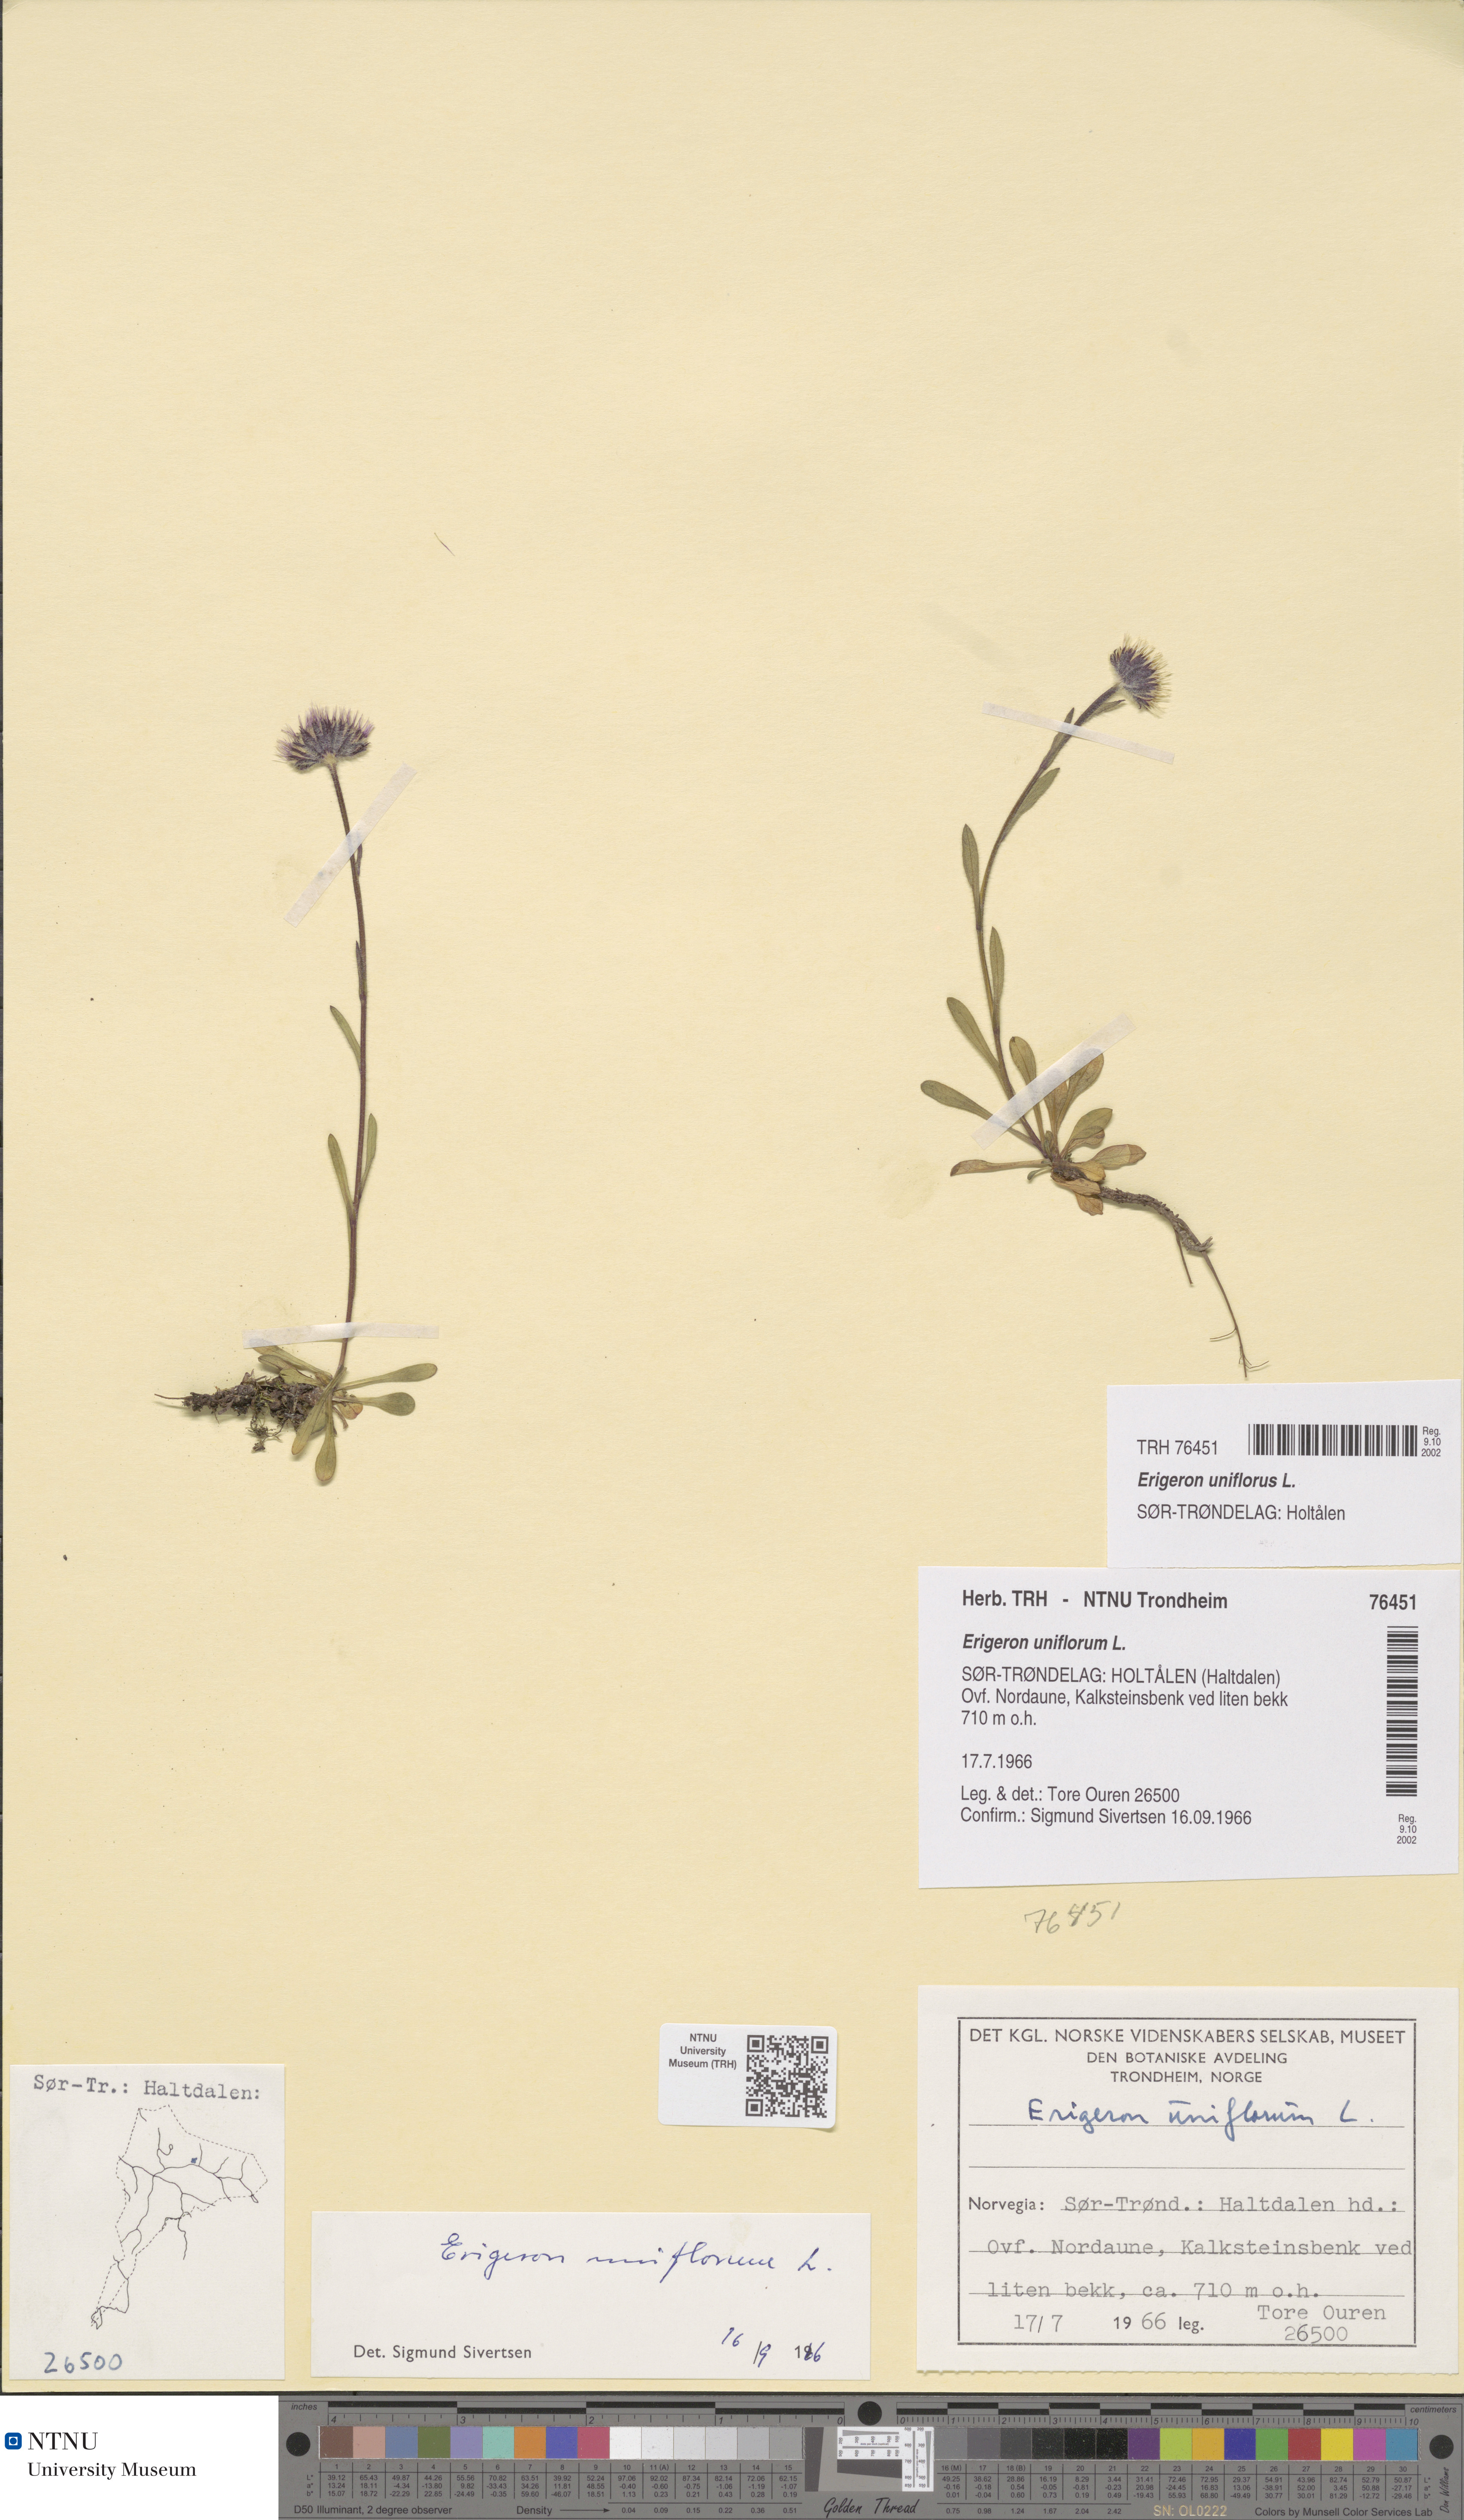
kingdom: Plantae
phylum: Tracheophyta
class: Magnoliopsida
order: Asterales
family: Asteraceae
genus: Erigeron
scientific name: Erigeron uniflorus
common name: Northern daisy
